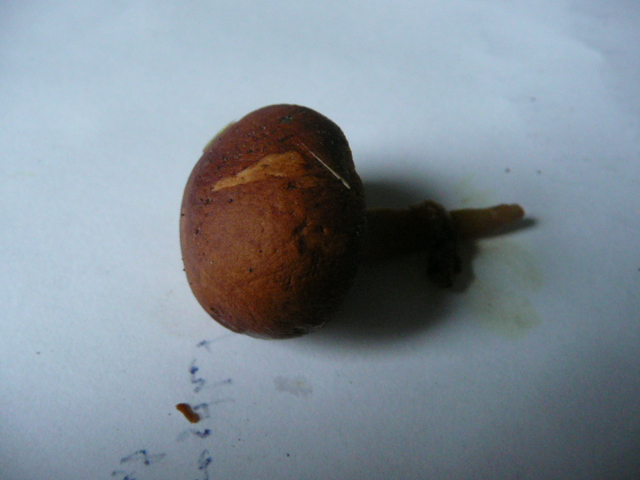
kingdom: Fungi
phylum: Basidiomycota
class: Agaricomycetes
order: Boletales
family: Boletaceae
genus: Chalciporus
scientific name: Chalciporus piperatus
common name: peberrørhat
